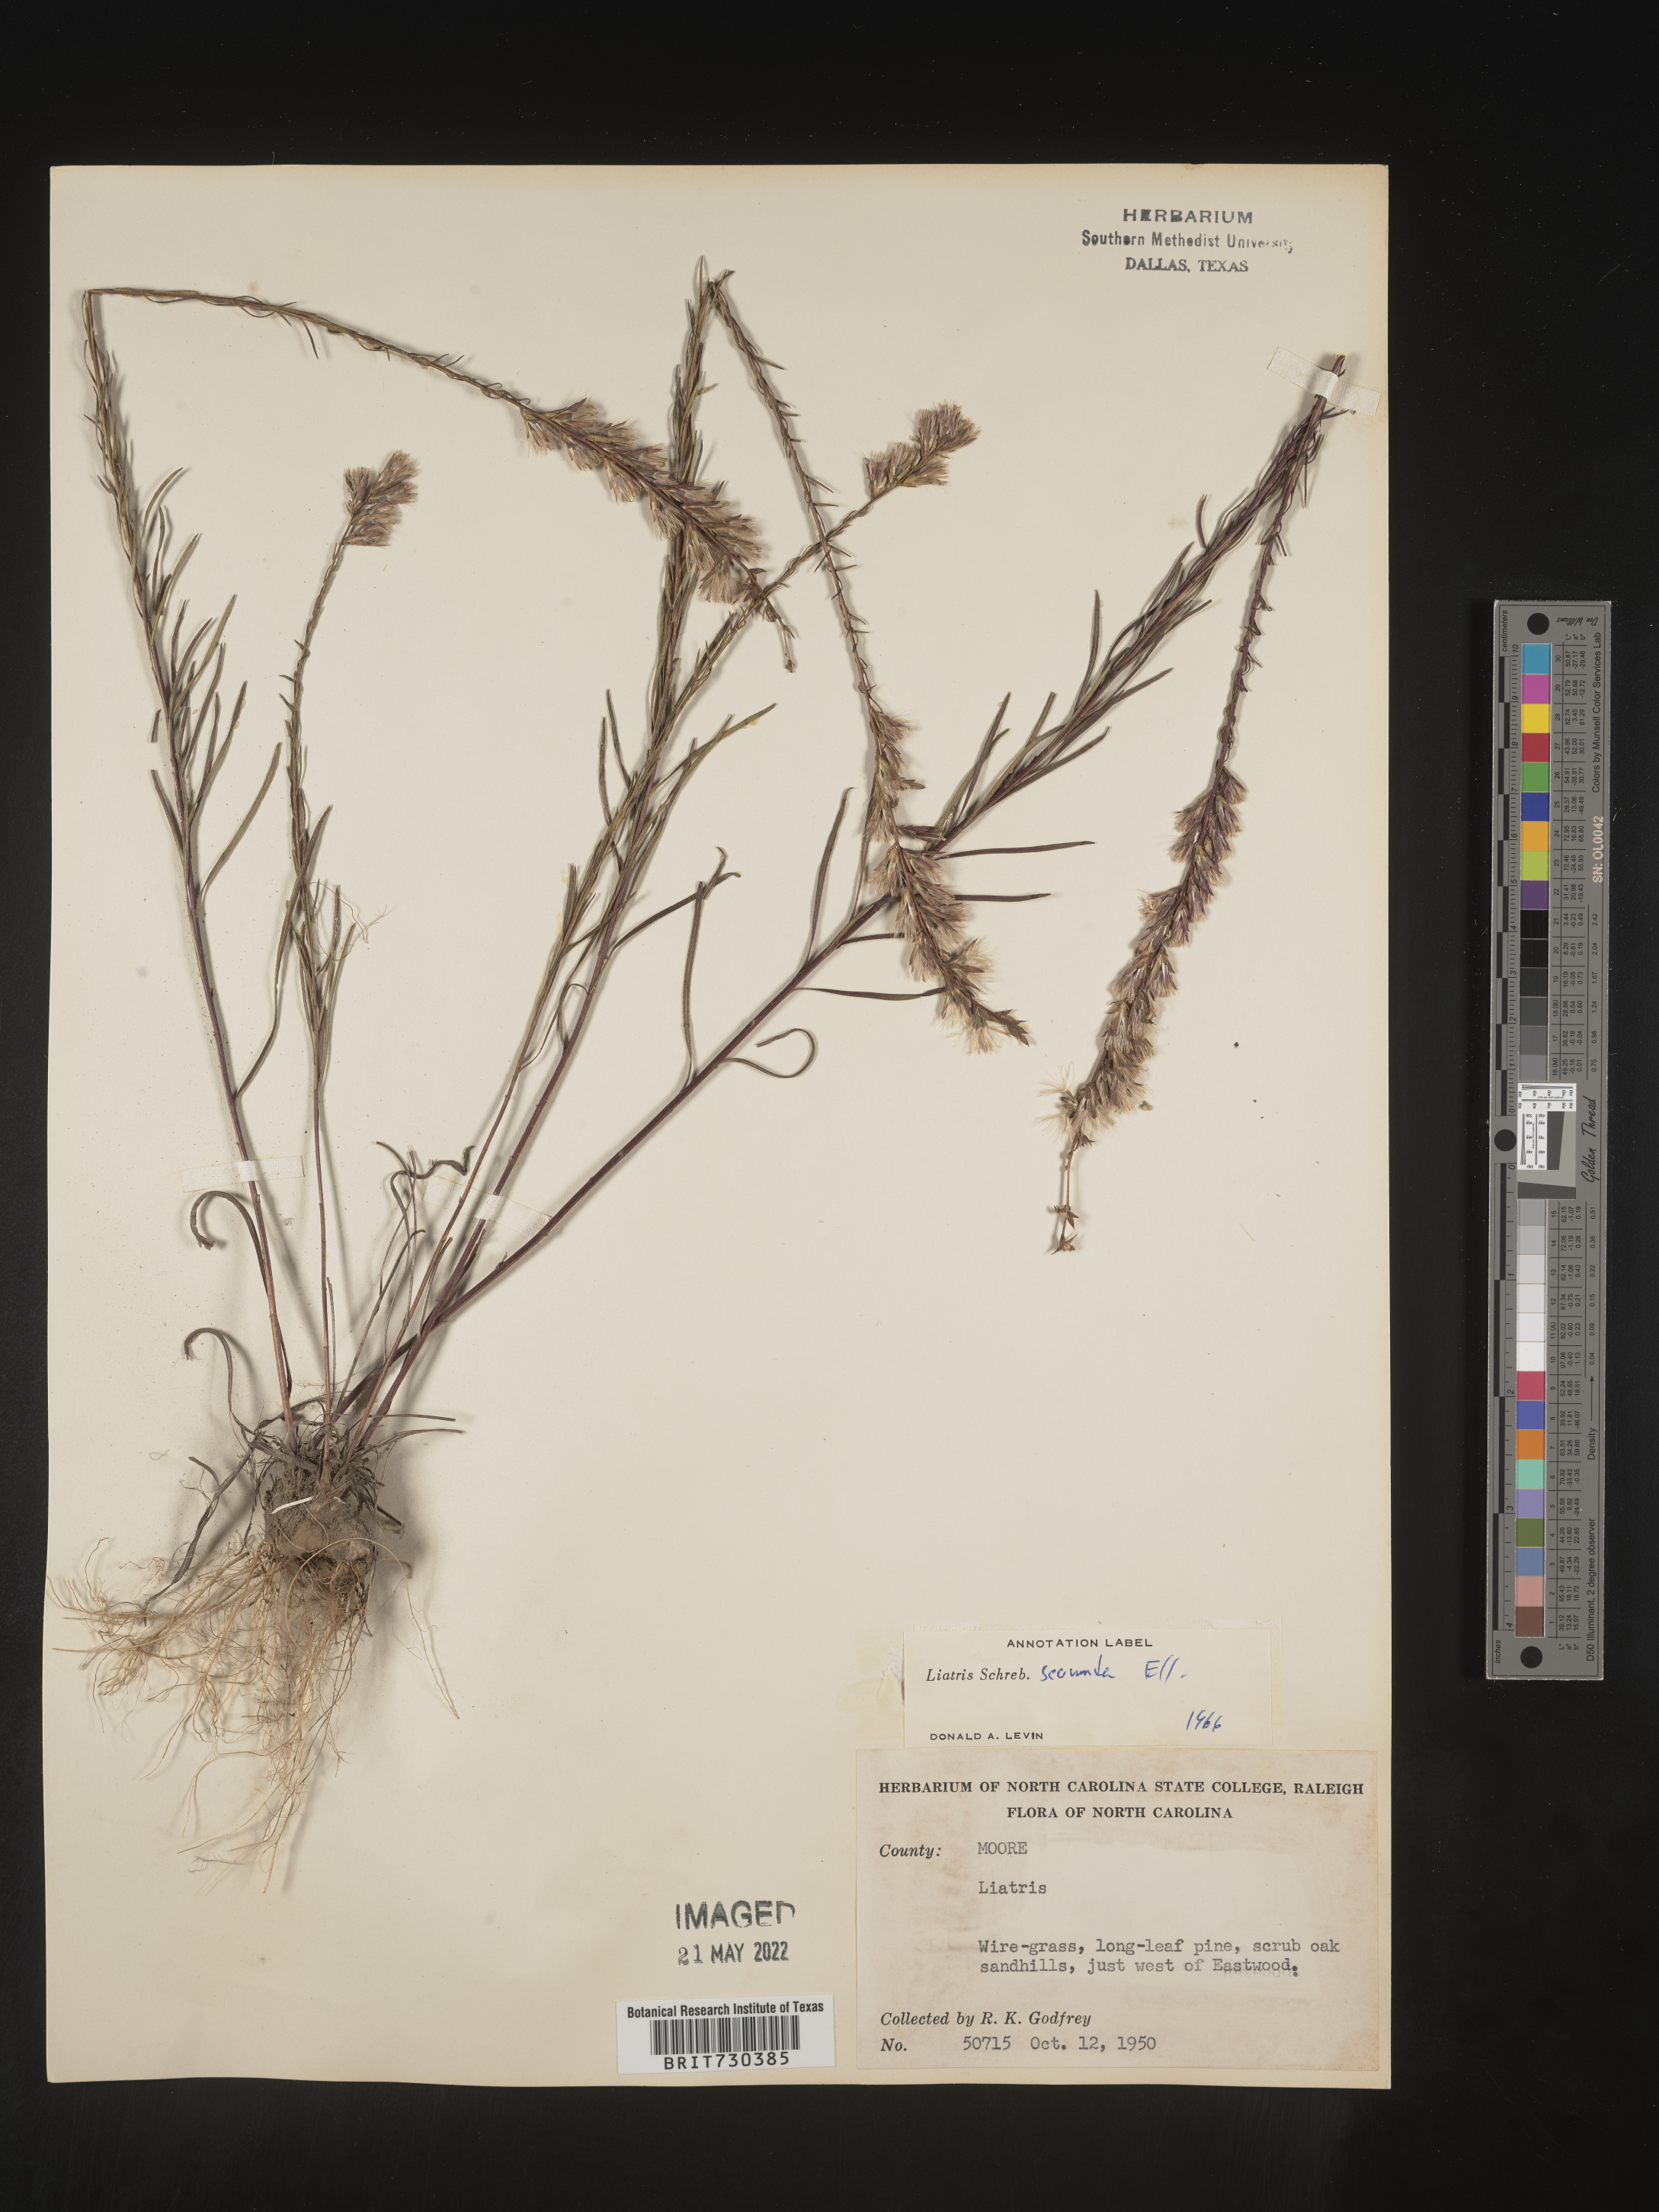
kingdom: Plantae
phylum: Tracheophyta
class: Magnoliopsida
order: Asterales
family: Asteraceae
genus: Liatris
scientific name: Liatris cokeri
